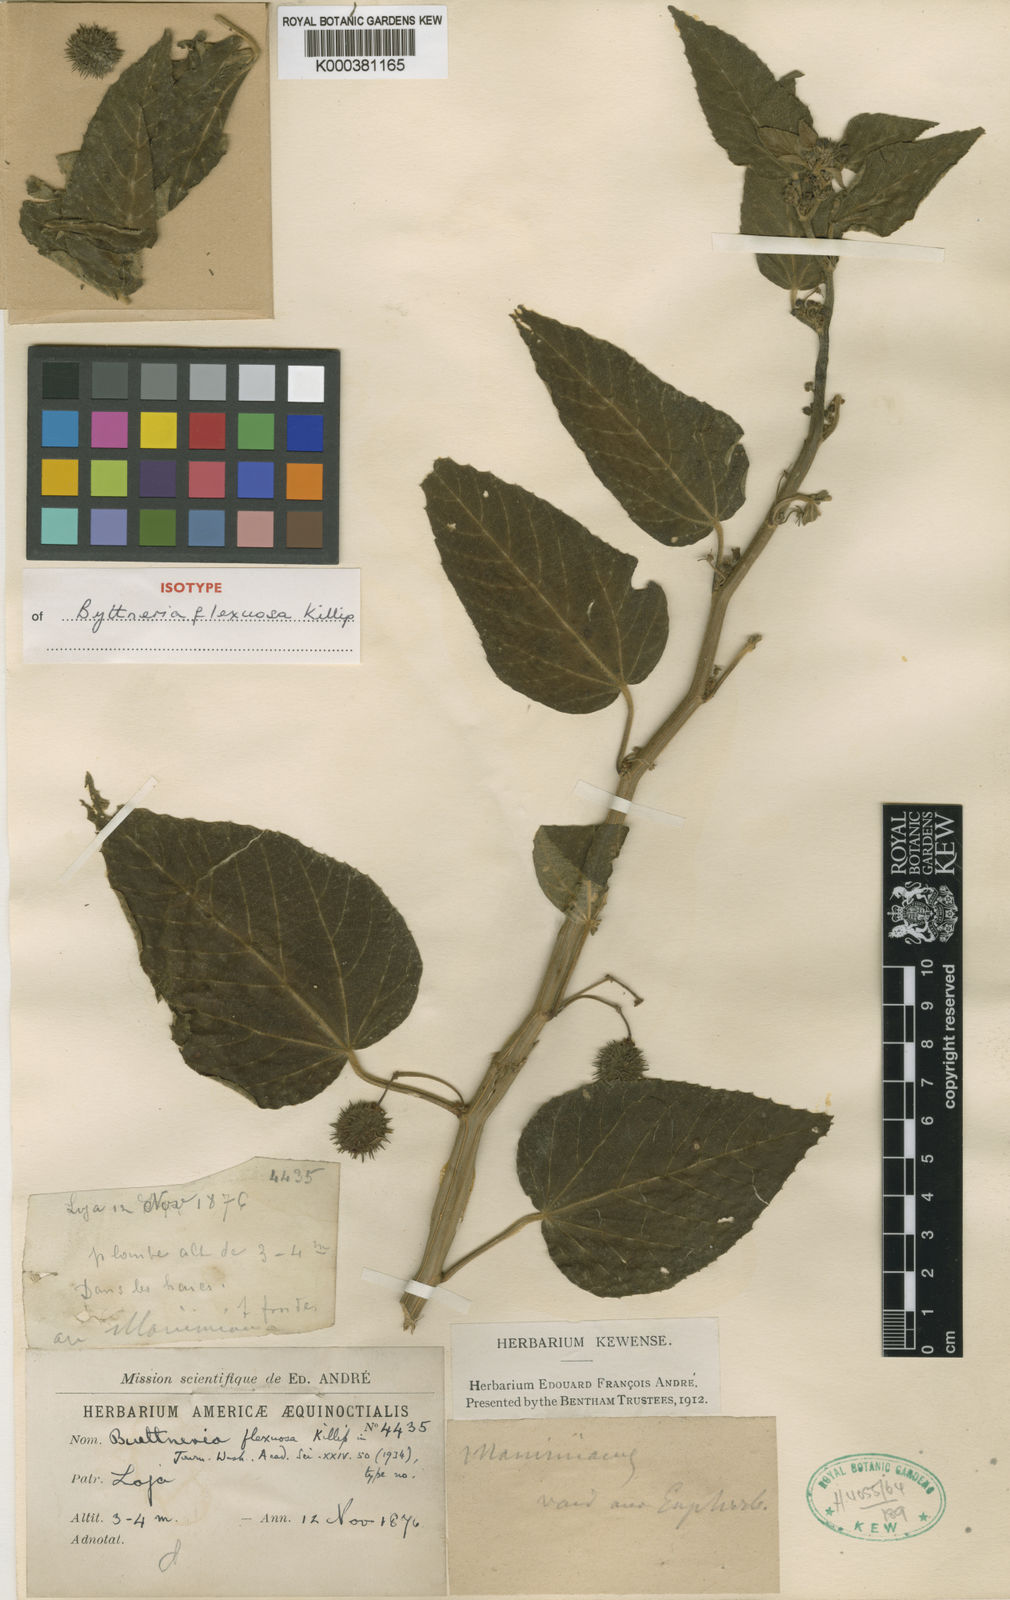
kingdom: Plantae
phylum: Tracheophyta
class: Magnoliopsida
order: Malvales
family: Malvaceae
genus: Byttneria
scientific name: Byttneria flexuosa
